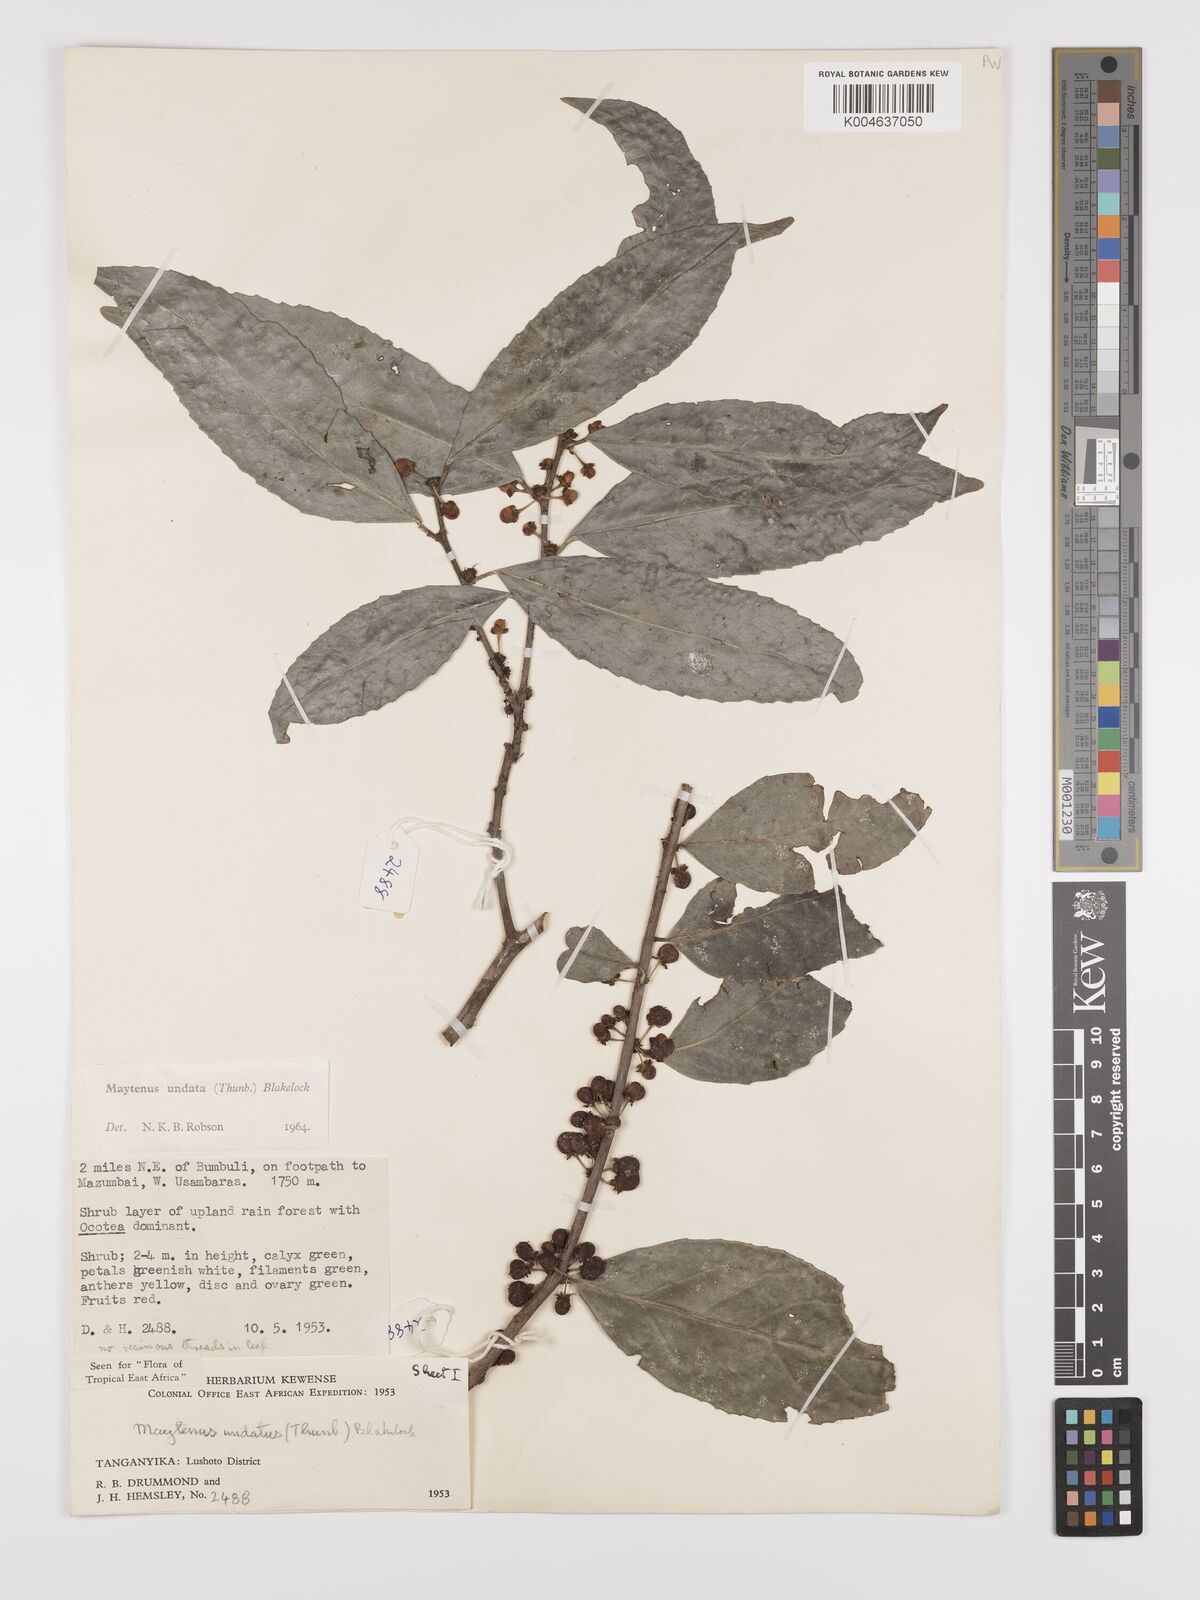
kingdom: Plantae
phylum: Tracheophyta
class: Magnoliopsida
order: Celastrales
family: Celastraceae
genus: Gymnosporia
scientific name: Gymnosporia undata
